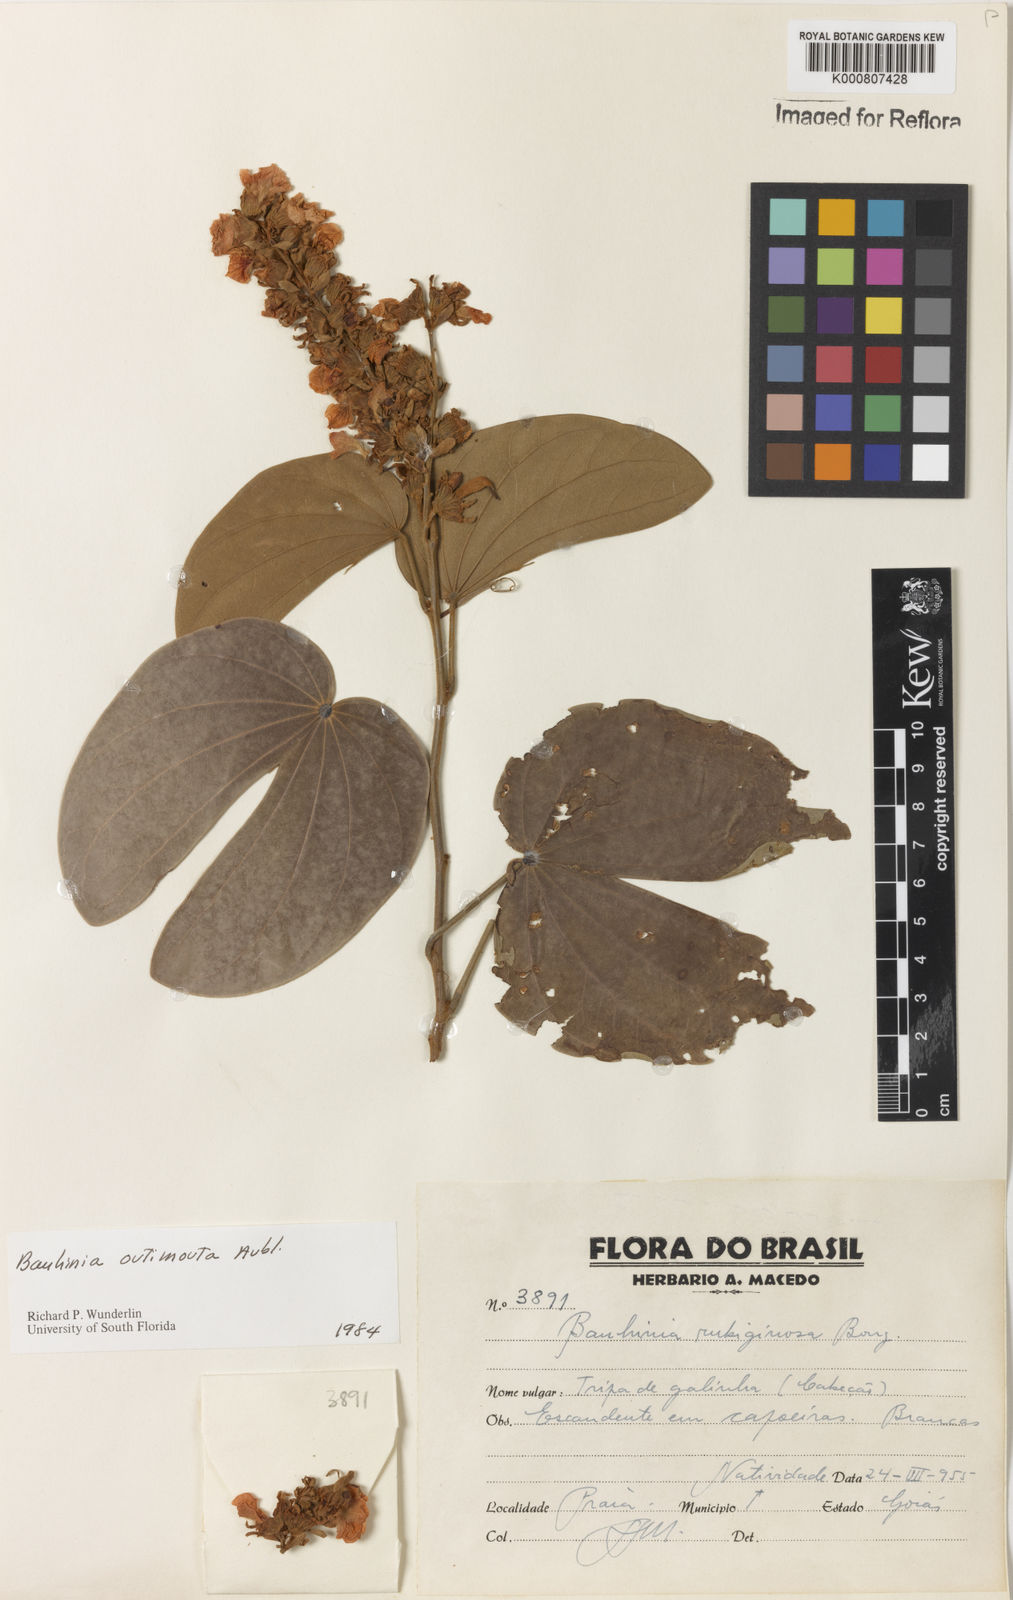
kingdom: Plantae
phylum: Tracheophyta
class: Magnoliopsida
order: Fabales
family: Fabaceae
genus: Schnella
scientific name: Schnella outimouta
